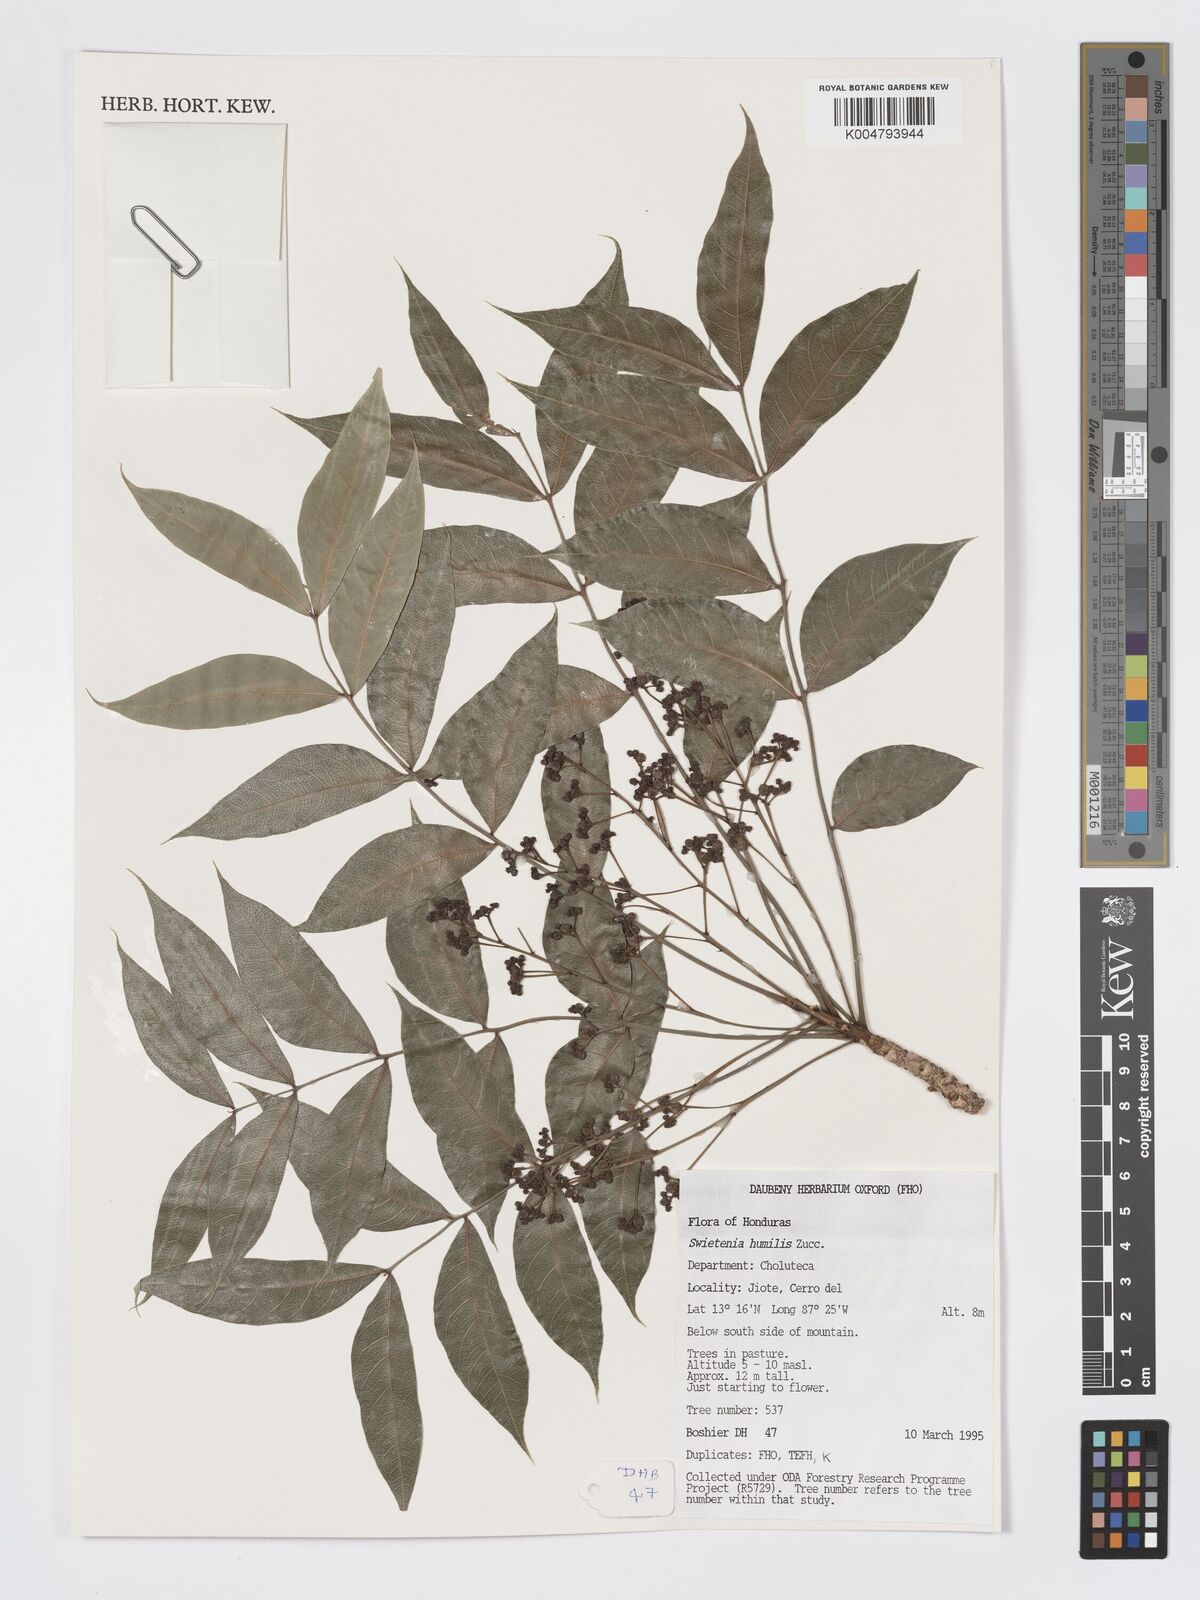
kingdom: Plantae
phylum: Tracheophyta
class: Magnoliopsida
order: Sapindales
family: Meliaceae
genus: Swietenia
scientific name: Swietenia humilis
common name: Pacific coast mahogany
